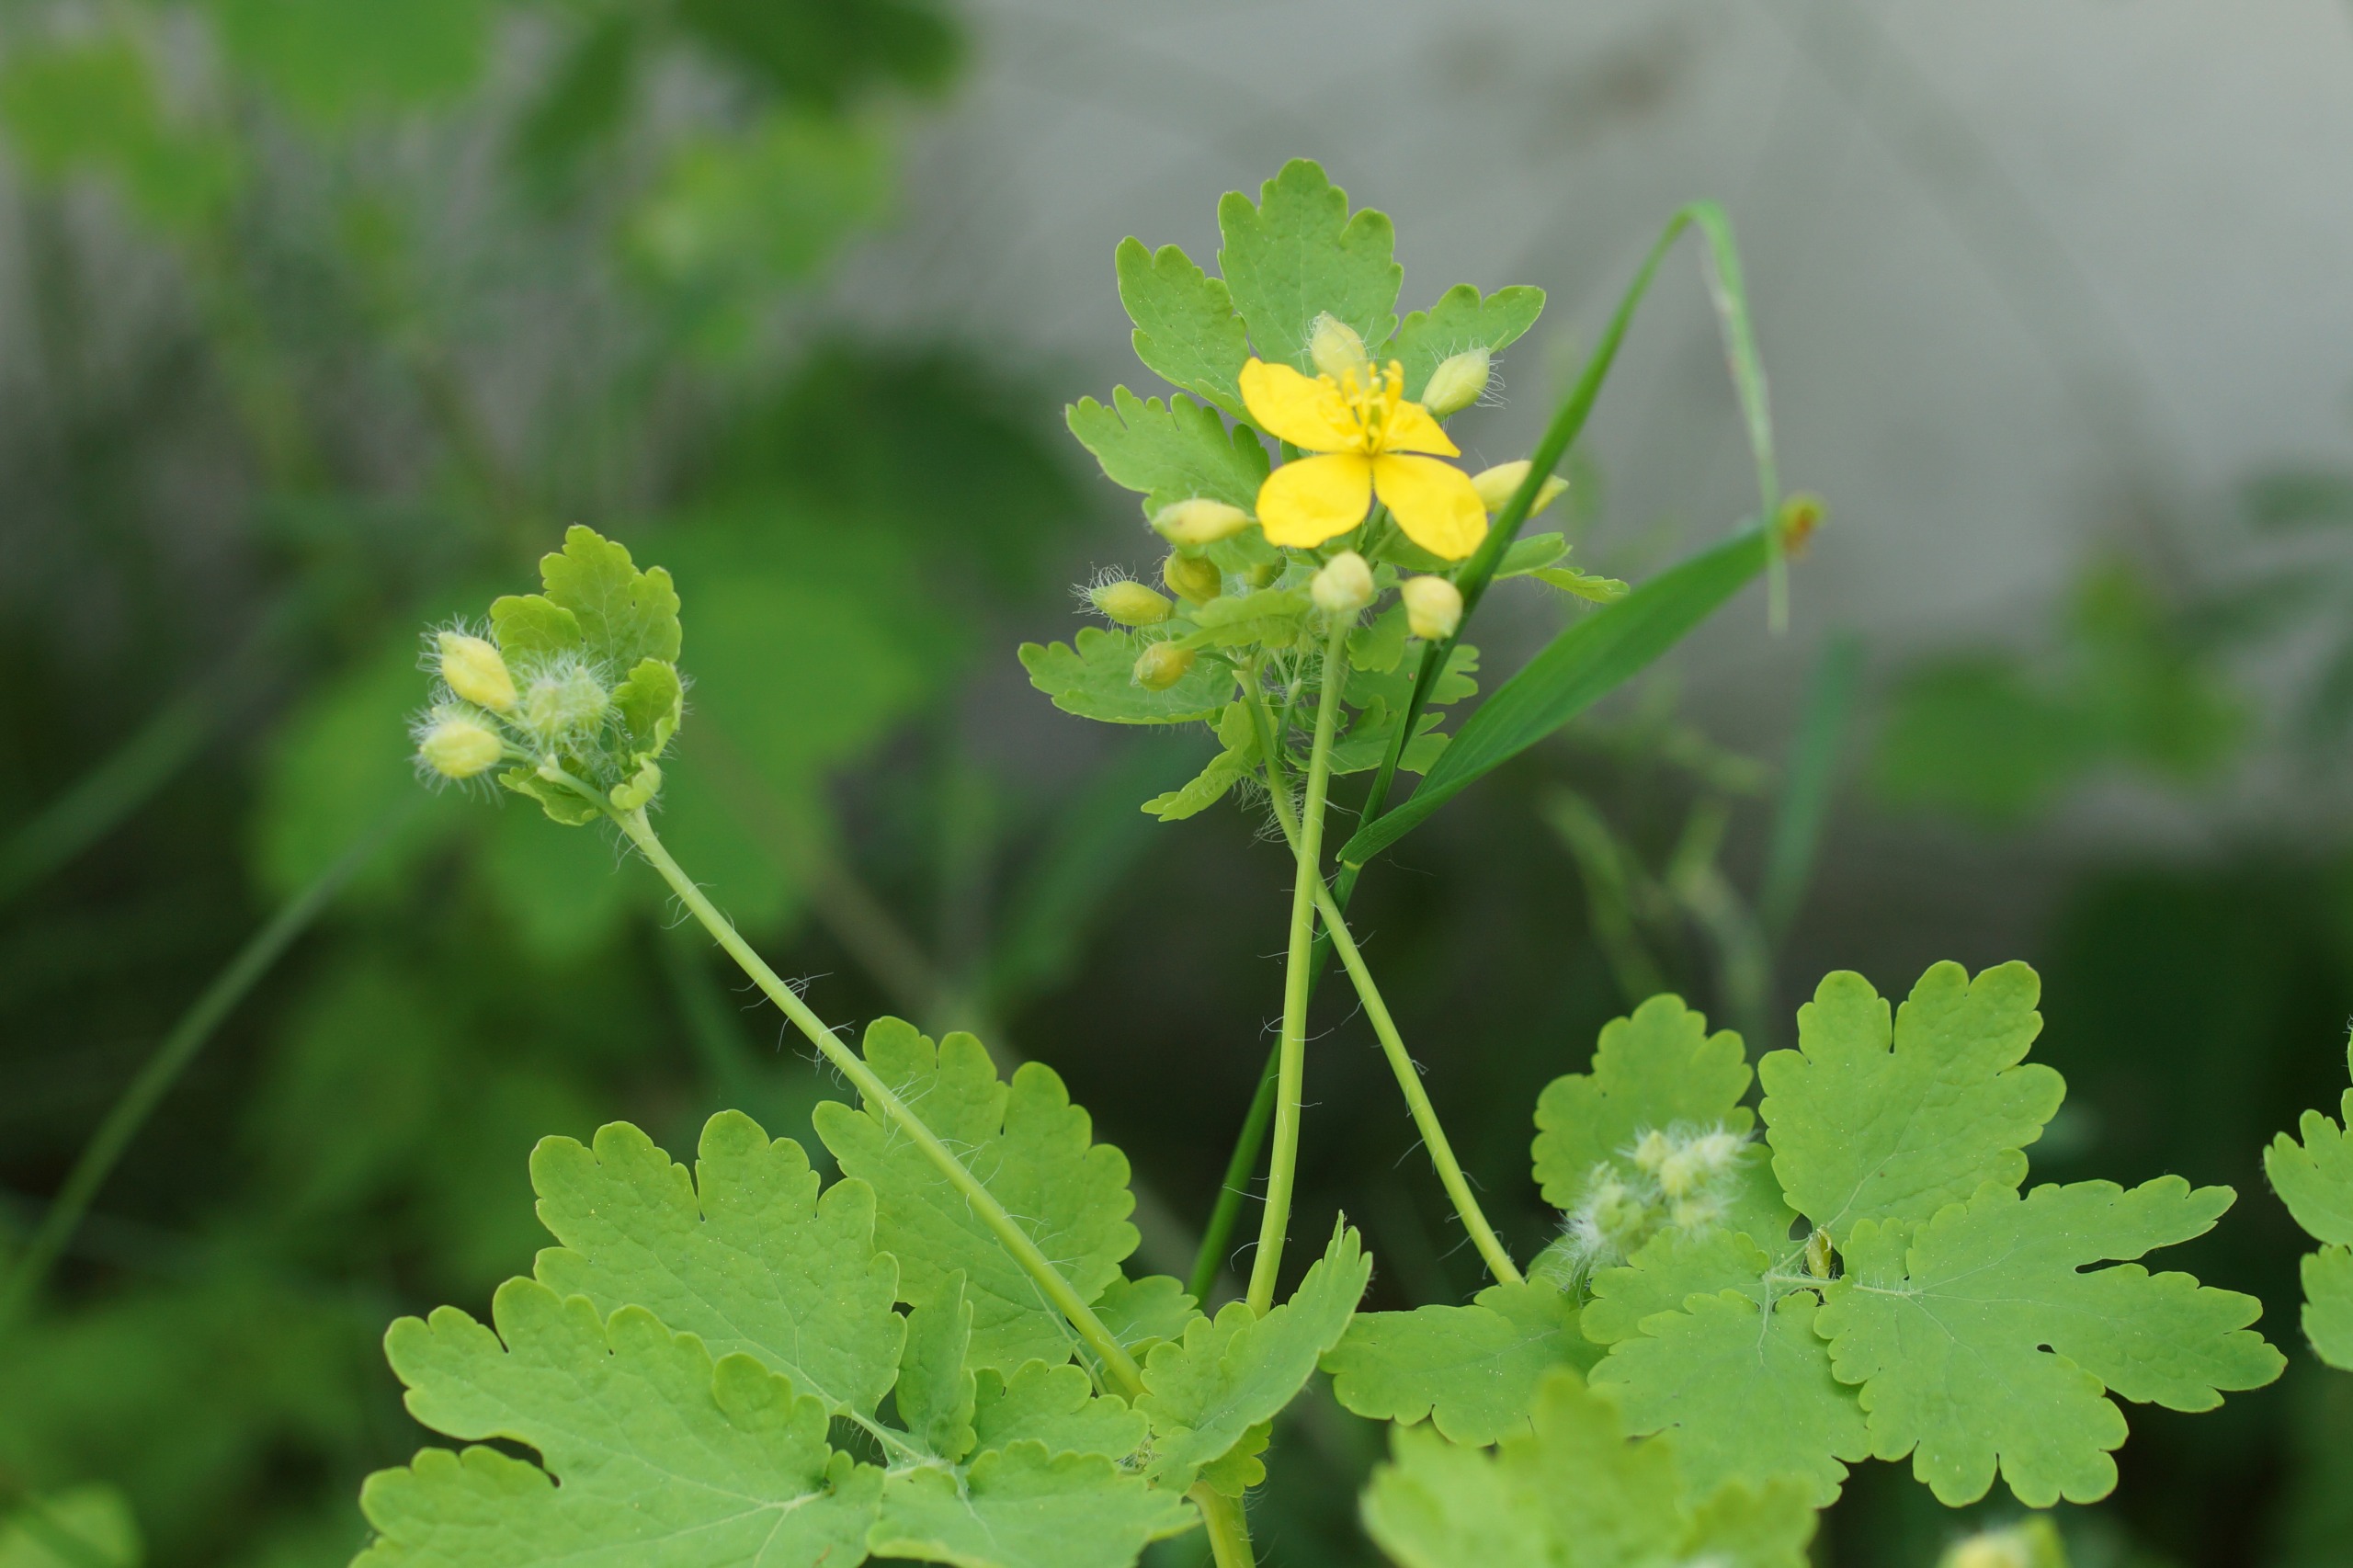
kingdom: Plantae
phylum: Tracheophyta
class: Magnoliopsida
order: Ranunculales
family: Papaveraceae
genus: Chelidonium
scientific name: Chelidonium majus
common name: Svaleurt
